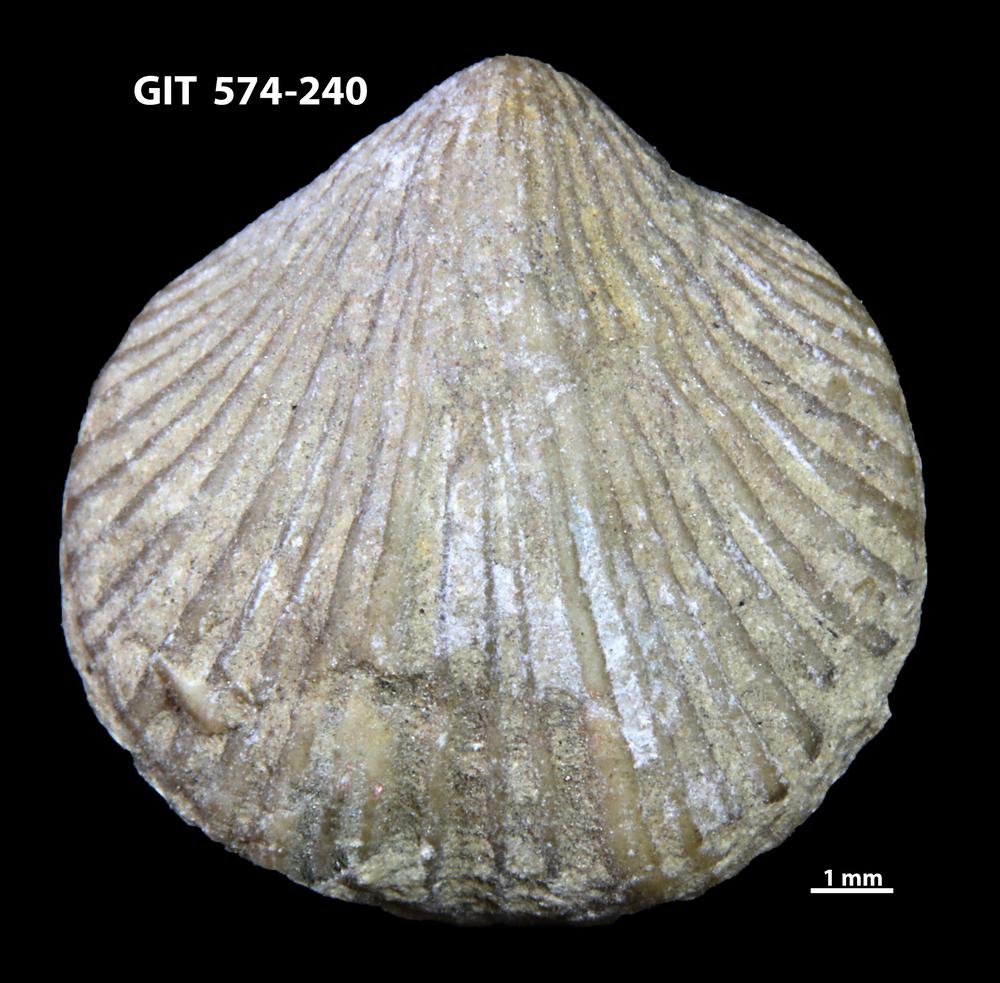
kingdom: Animalia
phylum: Brachiopoda
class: Rhynchonellata
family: Atrypinidae
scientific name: Atrypinidae
